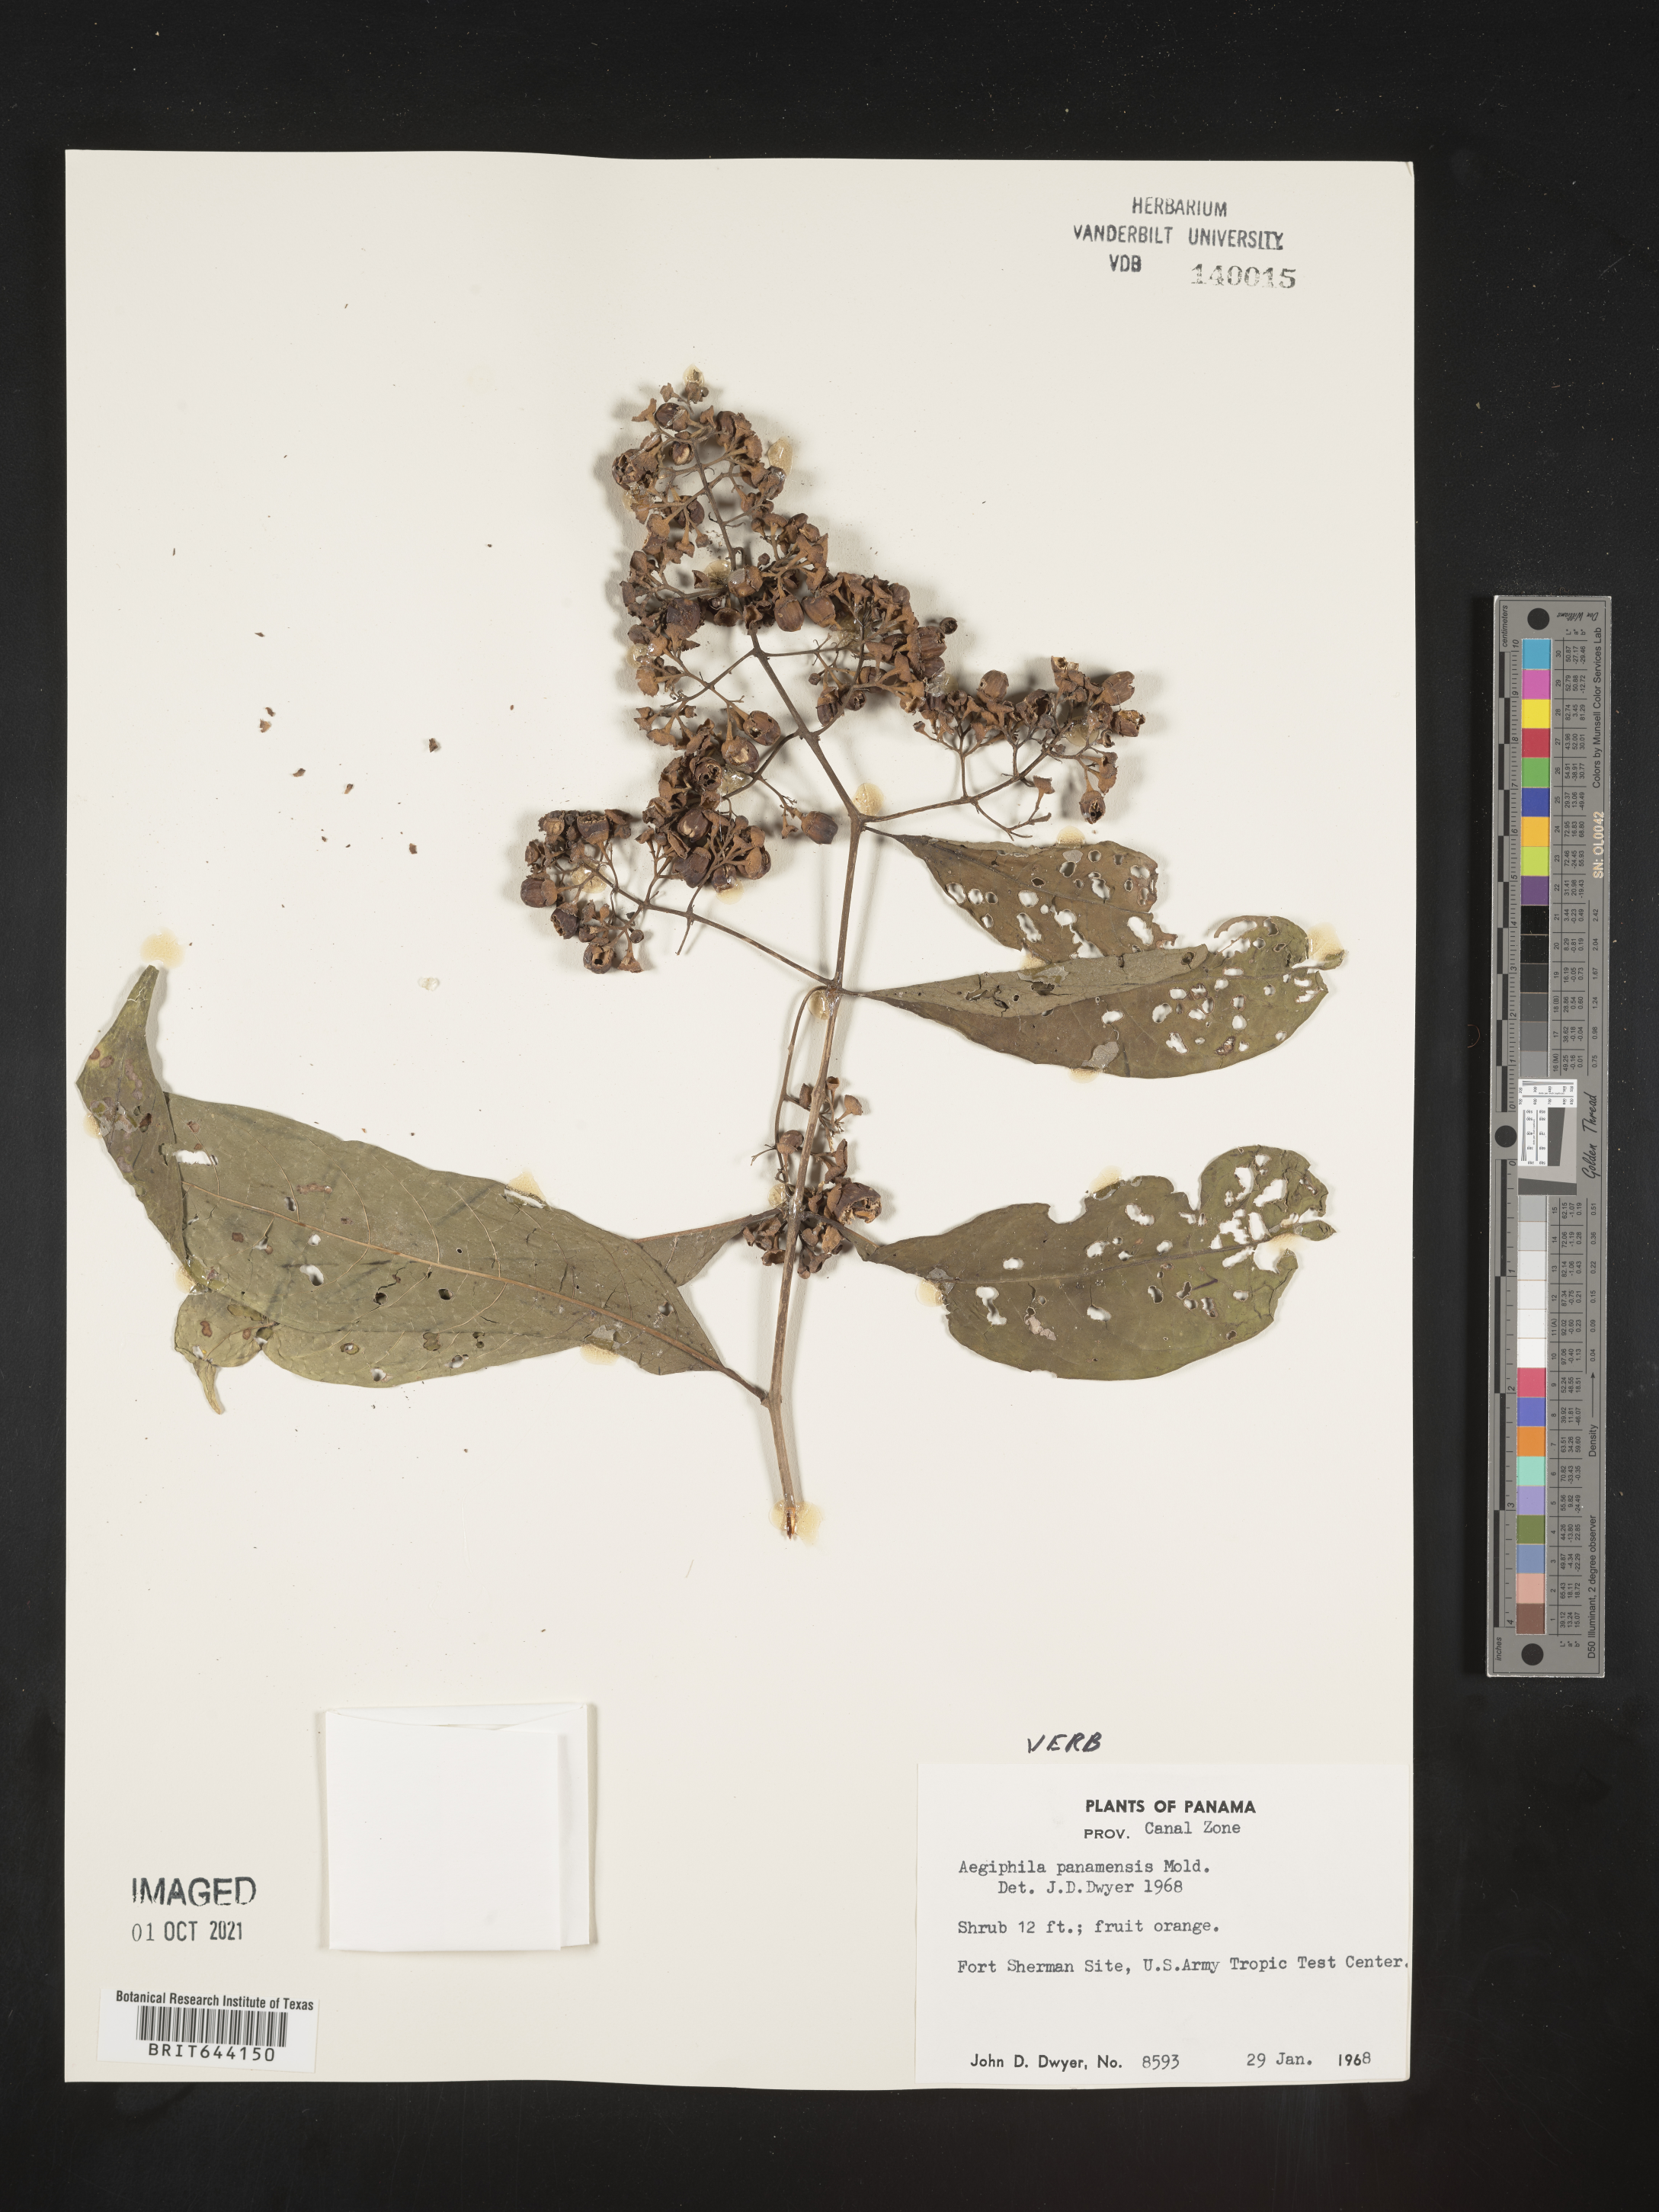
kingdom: Plantae
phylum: Tracheophyta
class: Magnoliopsida
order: Lamiales
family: Lamiaceae
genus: Aegiphila
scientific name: Aegiphila
